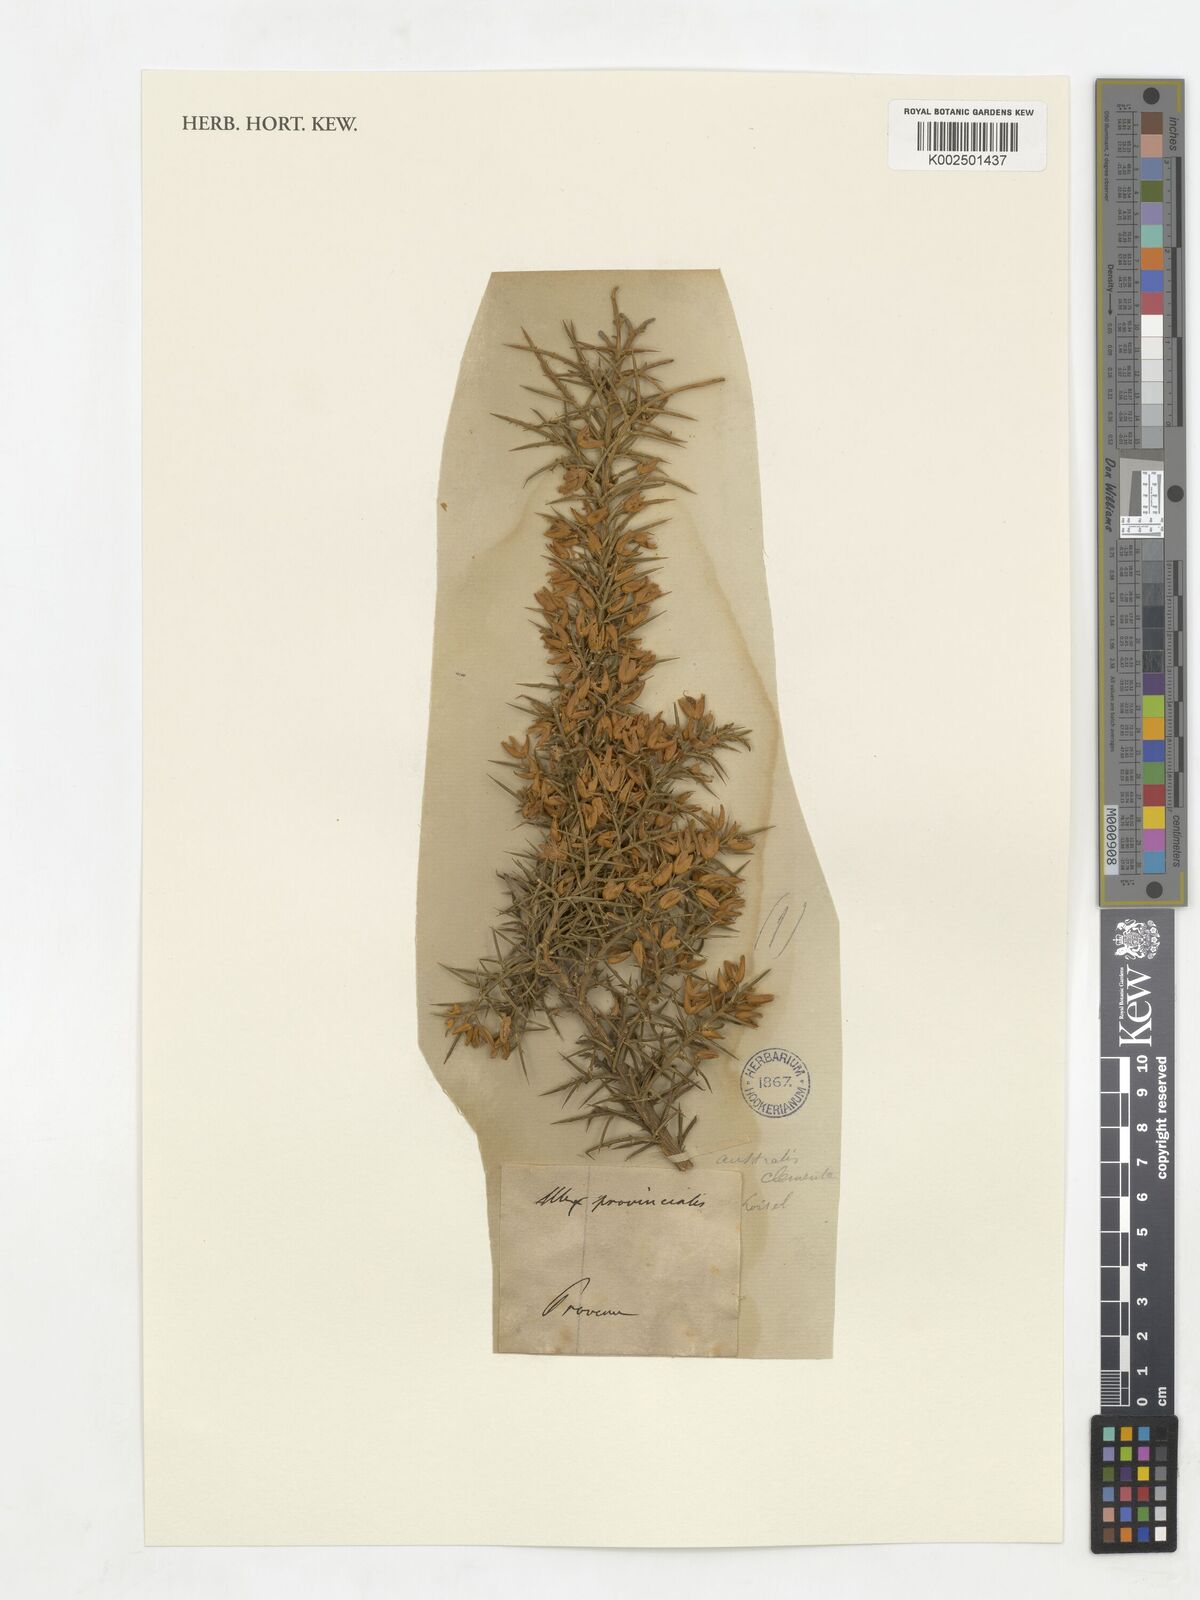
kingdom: Plantae
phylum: Tracheophyta
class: Magnoliopsida
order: Fabales
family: Fabaceae
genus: Ulex
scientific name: Ulex australis
